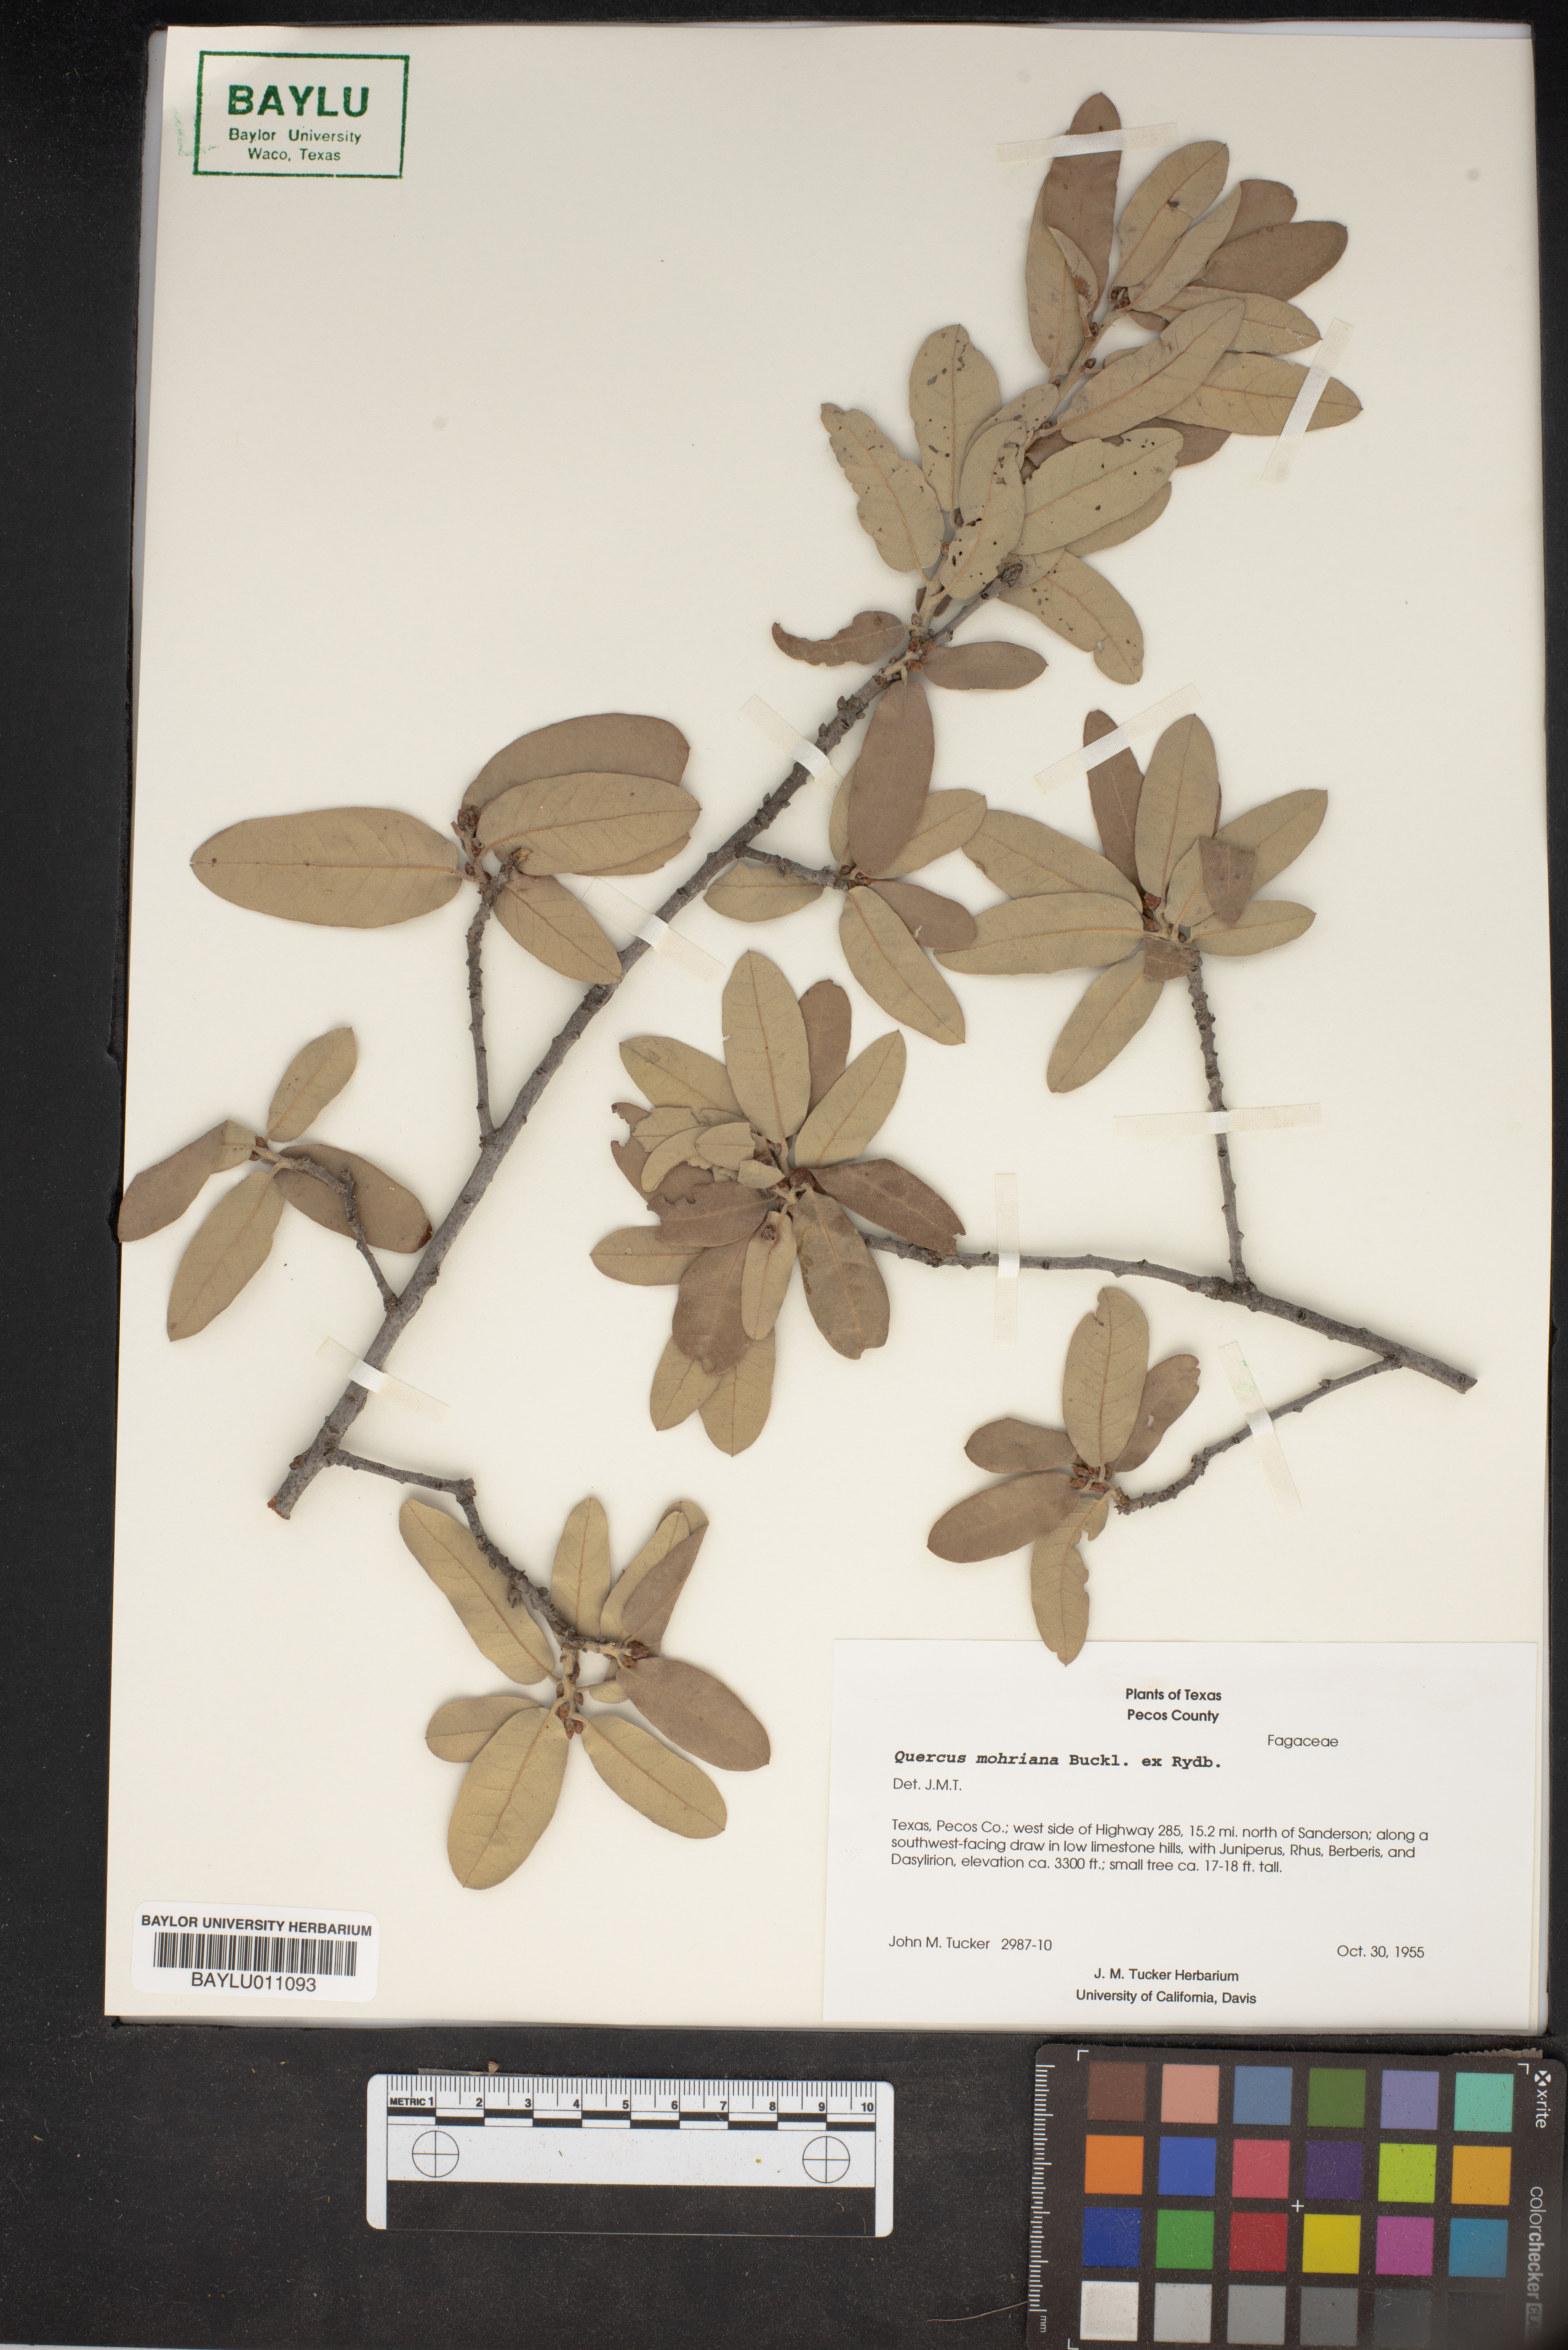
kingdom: Plantae
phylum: Tracheophyta
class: Magnoliopsida
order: Fagales
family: Fagaceae
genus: Quercus
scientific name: Quercus mohriana
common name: Mohr oak
